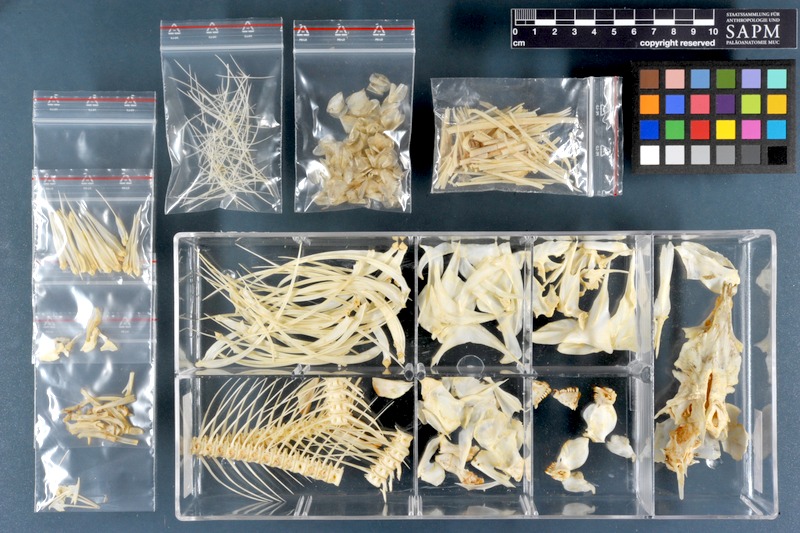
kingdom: Animalia
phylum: Chordata
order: Characiformes
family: Distichodontidae
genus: Distichodus
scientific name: Distichodus lusosso
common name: Longsnout distichodus
